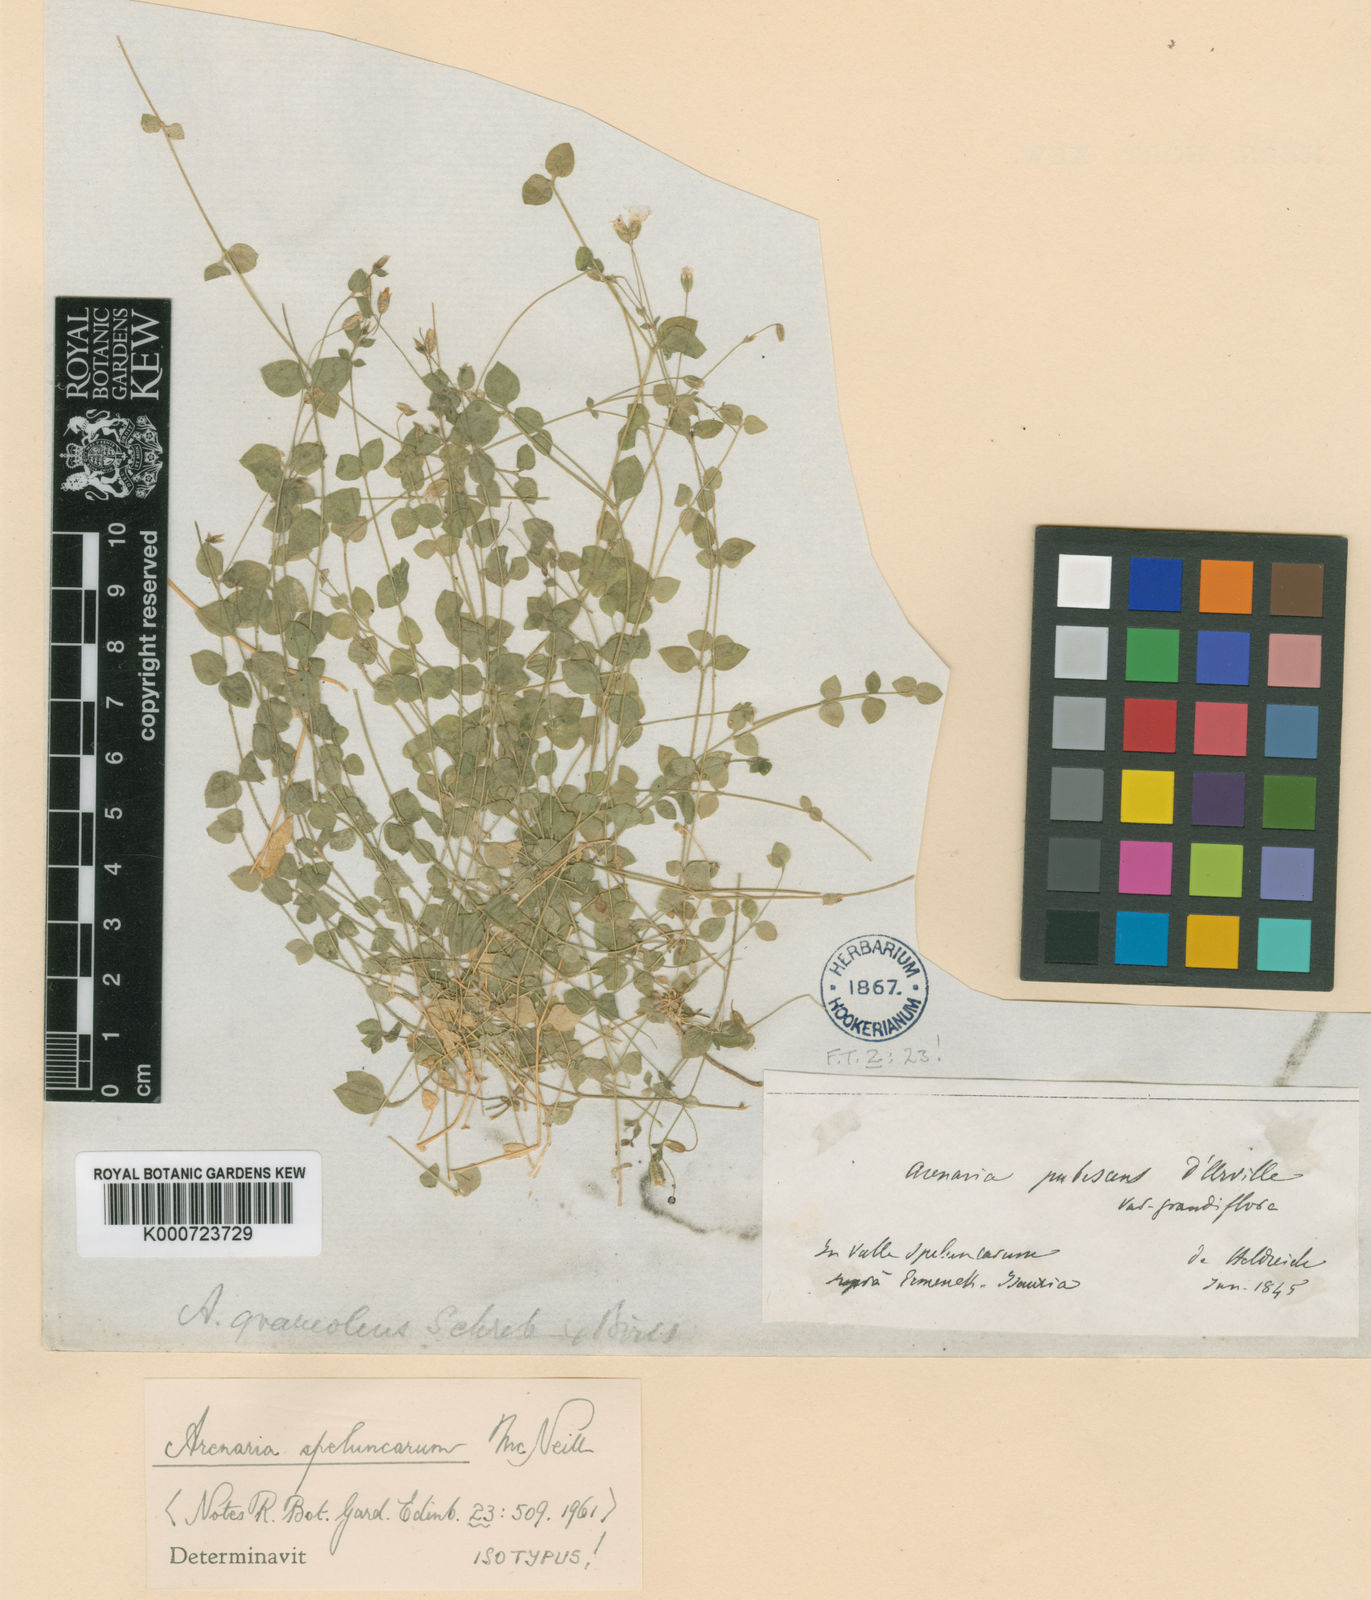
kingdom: Plantae
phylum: Tracheophyta
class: Magnoliopsida
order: Caryophyllales
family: Caryophyllaceae
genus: Arenaria
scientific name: Arenaria speluncarum
